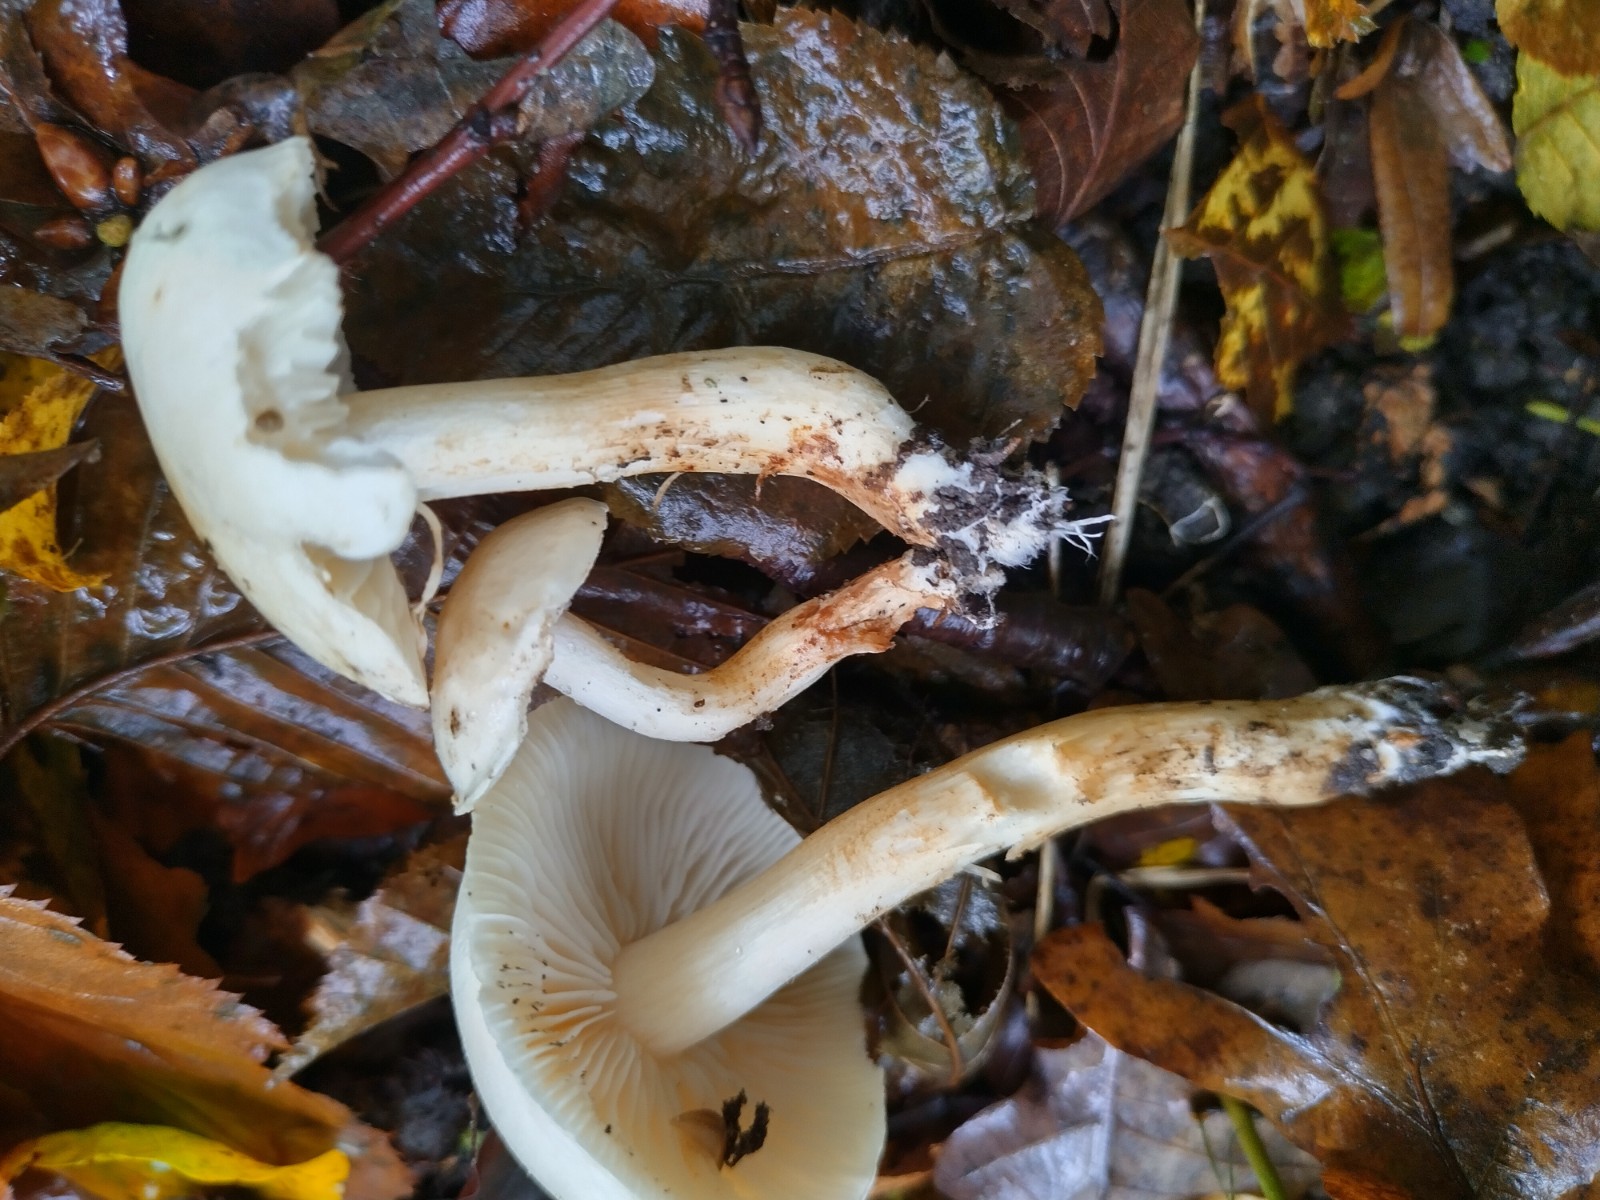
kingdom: Fungi
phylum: Basidiomycota
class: Agaricomycetes
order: Agaricales
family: Omphalotaceae
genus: Rhodocollybia
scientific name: Rhodocollybia maculata
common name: plettet fladhat
